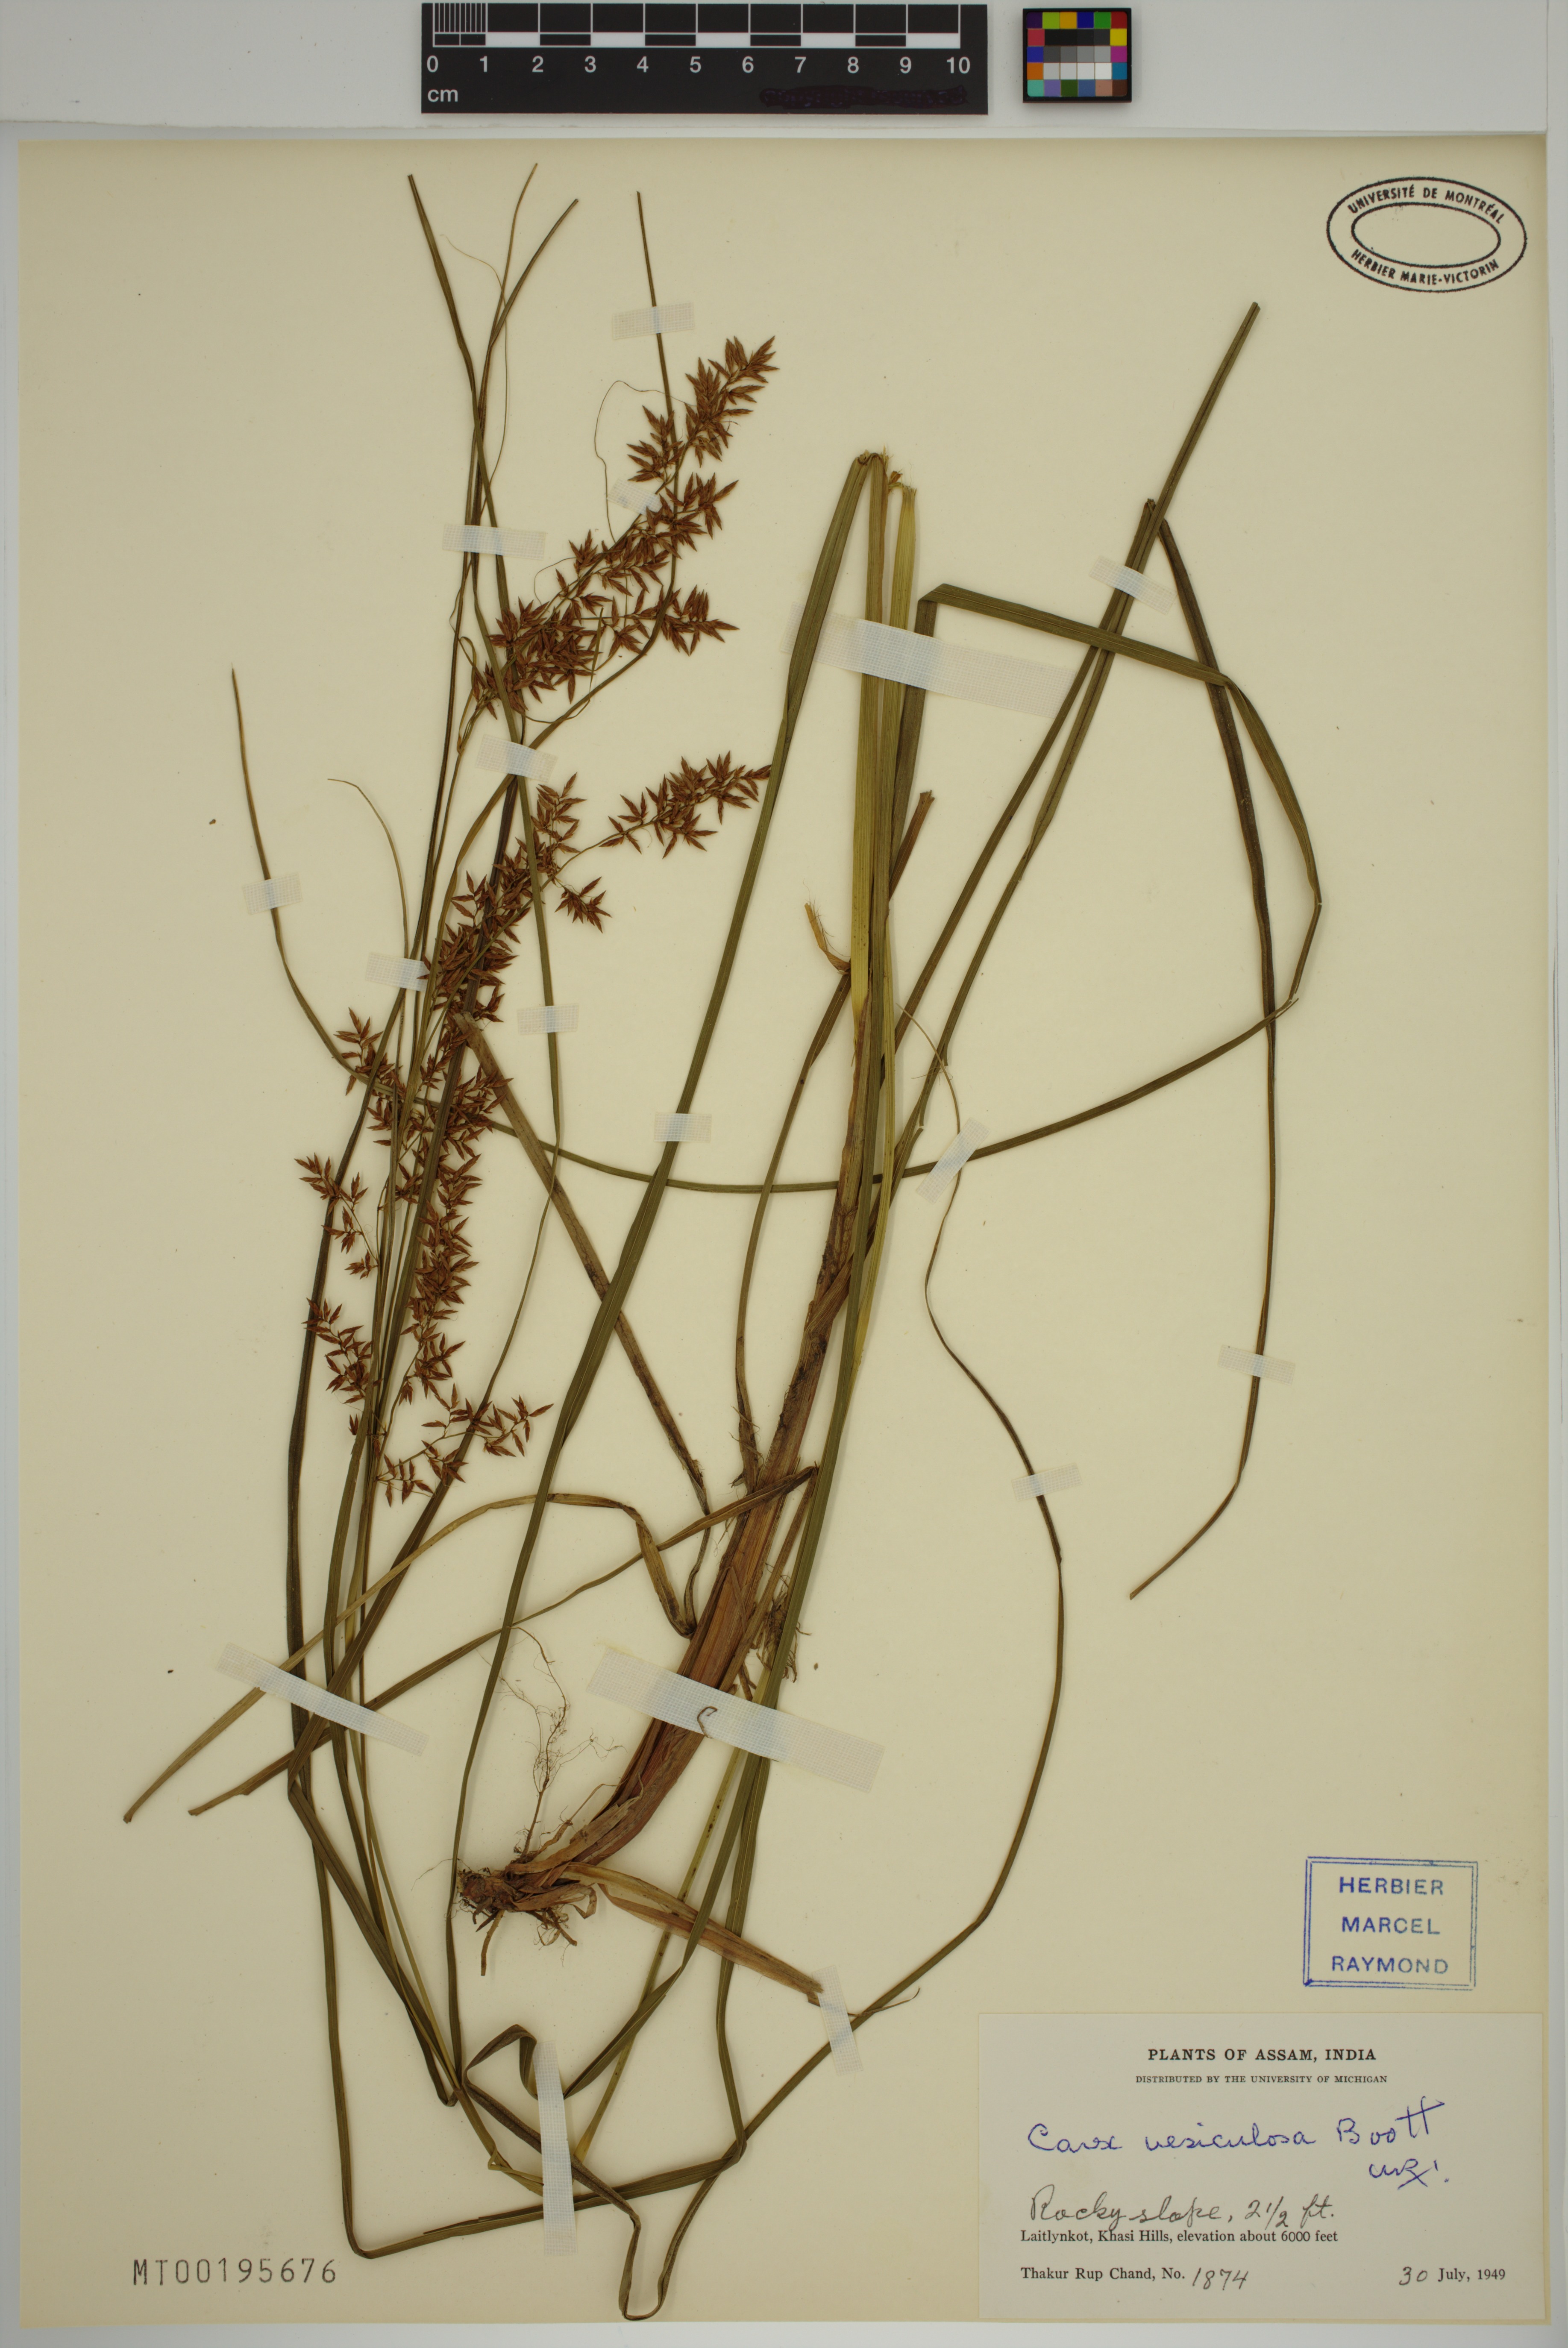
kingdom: Plantae
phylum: Tracheophyta
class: Liliopsida
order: Poales
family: Cyperaceae
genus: Carex
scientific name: Carex vesiculosa
